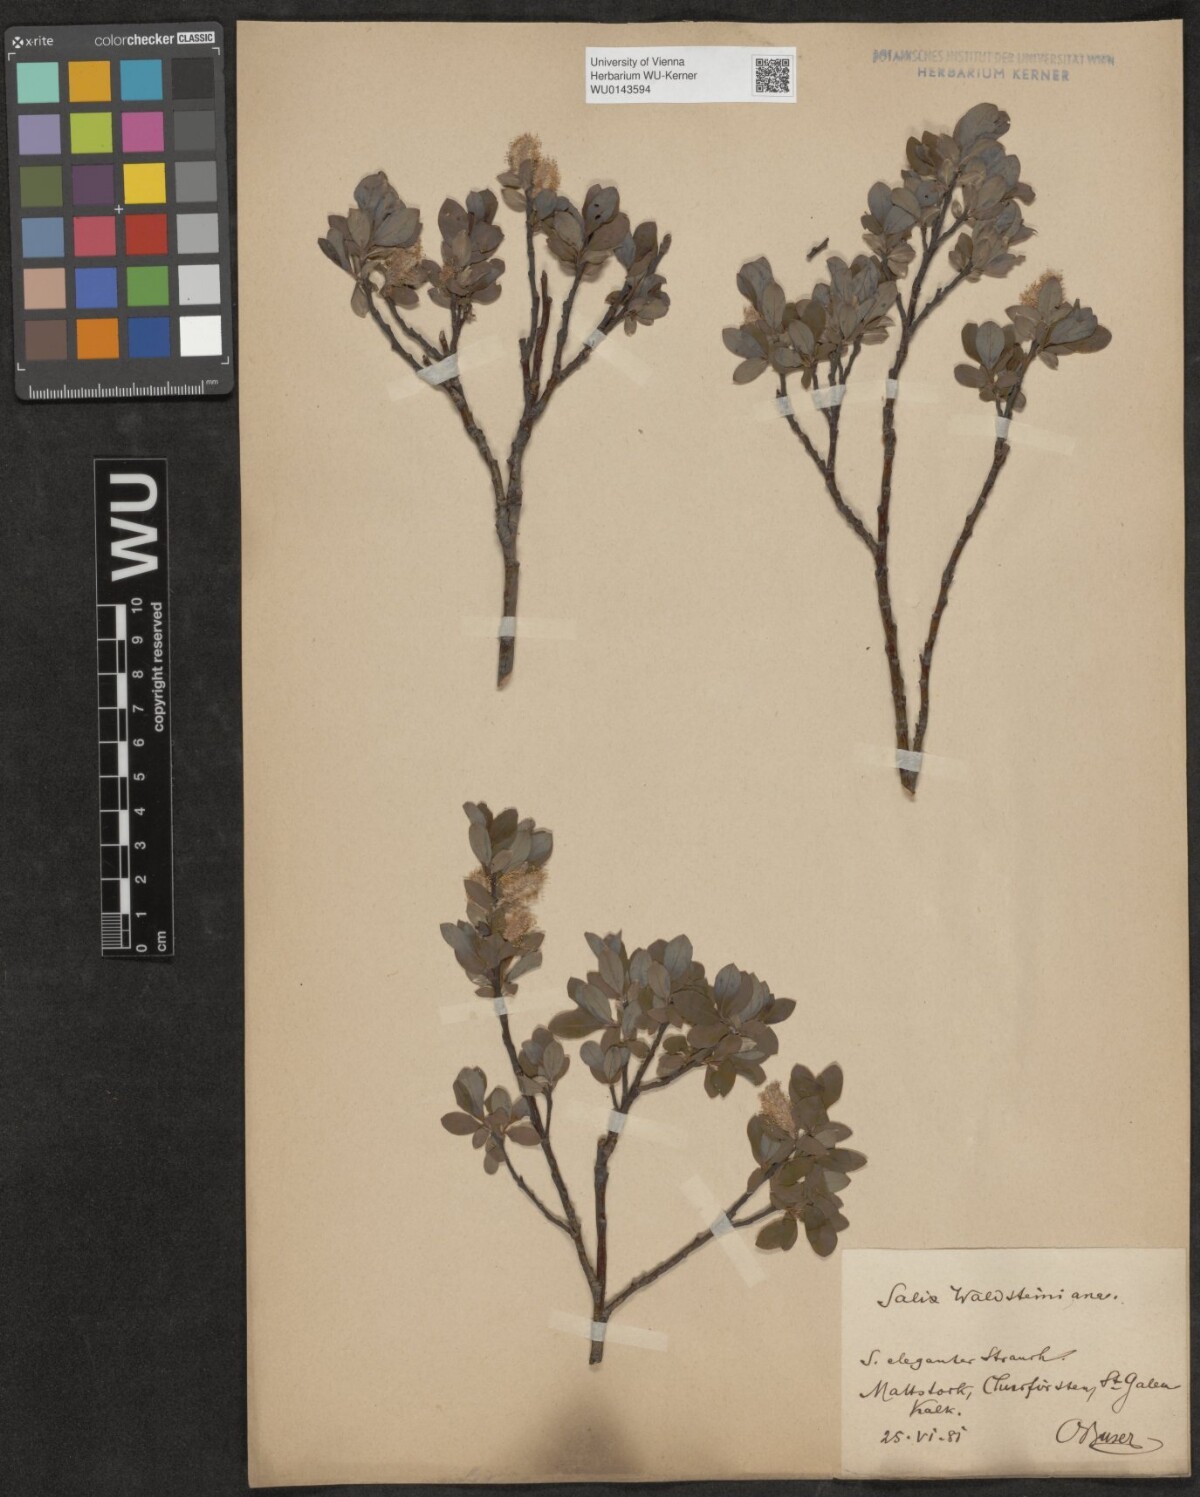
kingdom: Plantae
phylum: Tracheophyta
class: Magnoliopsida
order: Malpighiales
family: Salicaceae
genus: Salix
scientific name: Salix waldsteiniana
